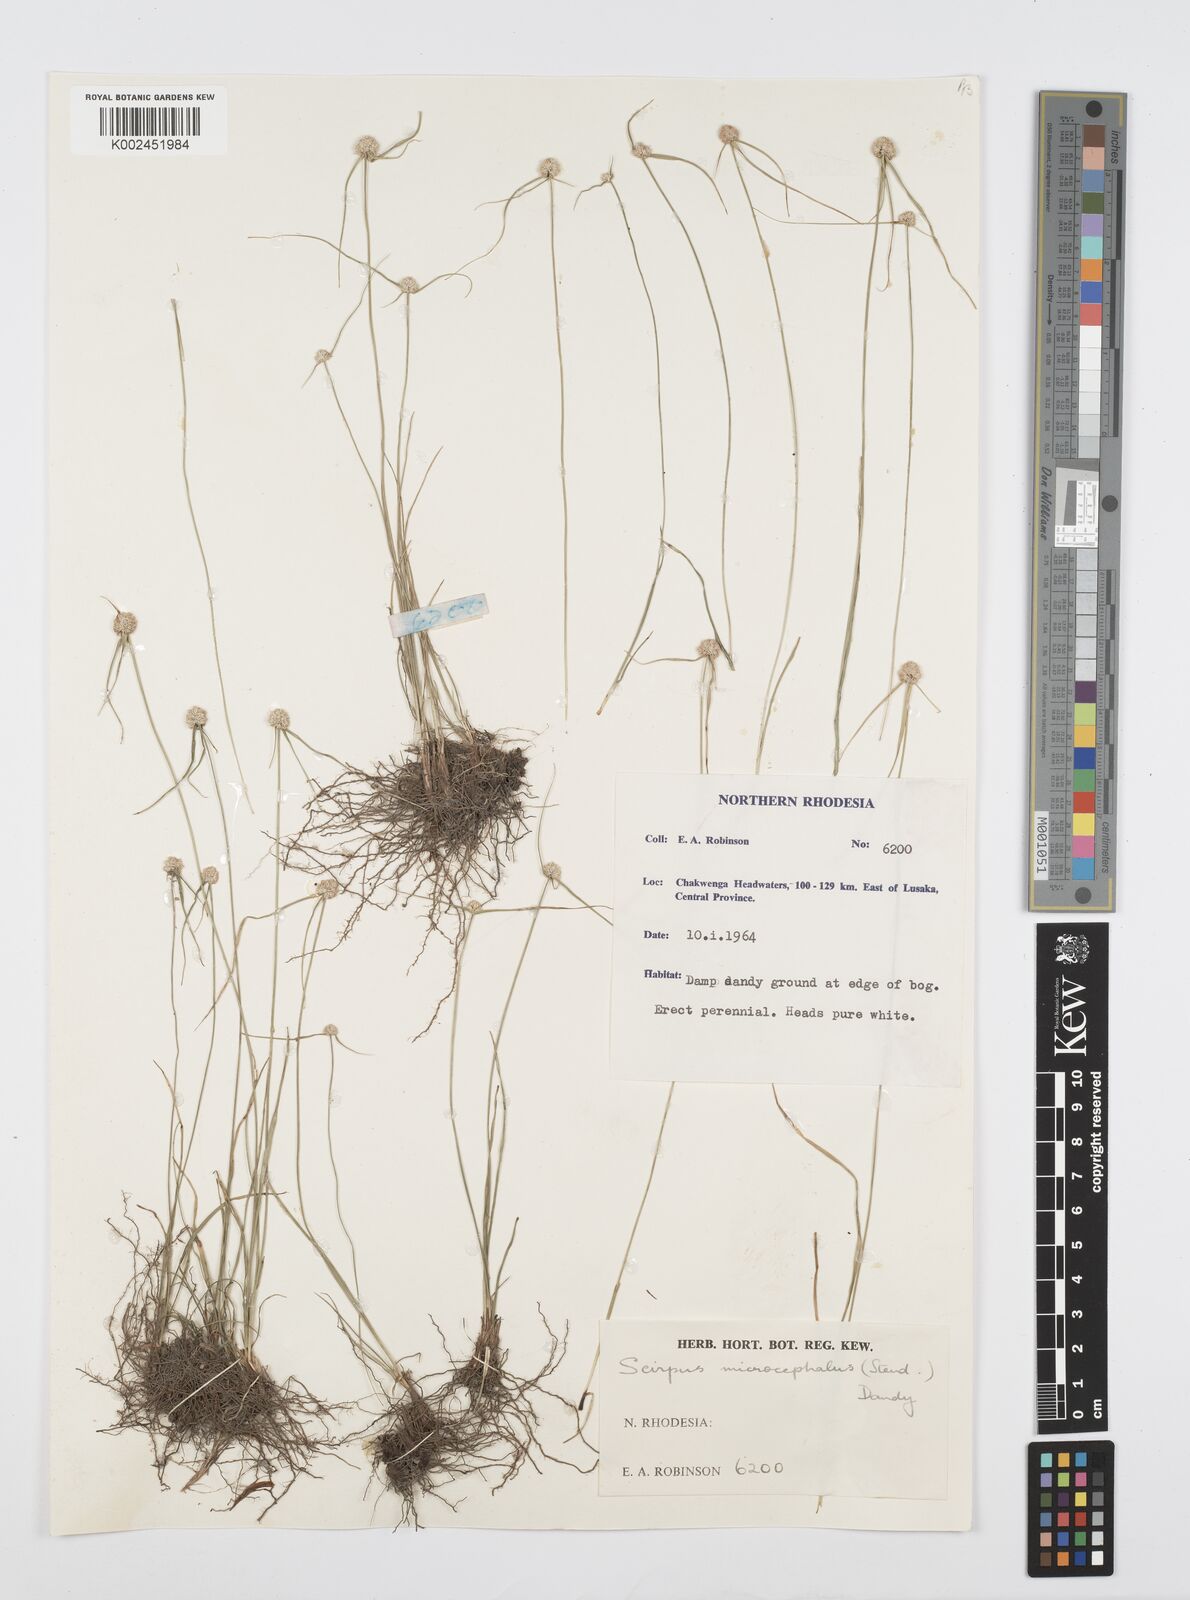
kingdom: Plantae
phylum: Tracheophyta
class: Liliopsida
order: Poales
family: Cyperaceae
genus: Cyperus
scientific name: Cyperus microcephalus
